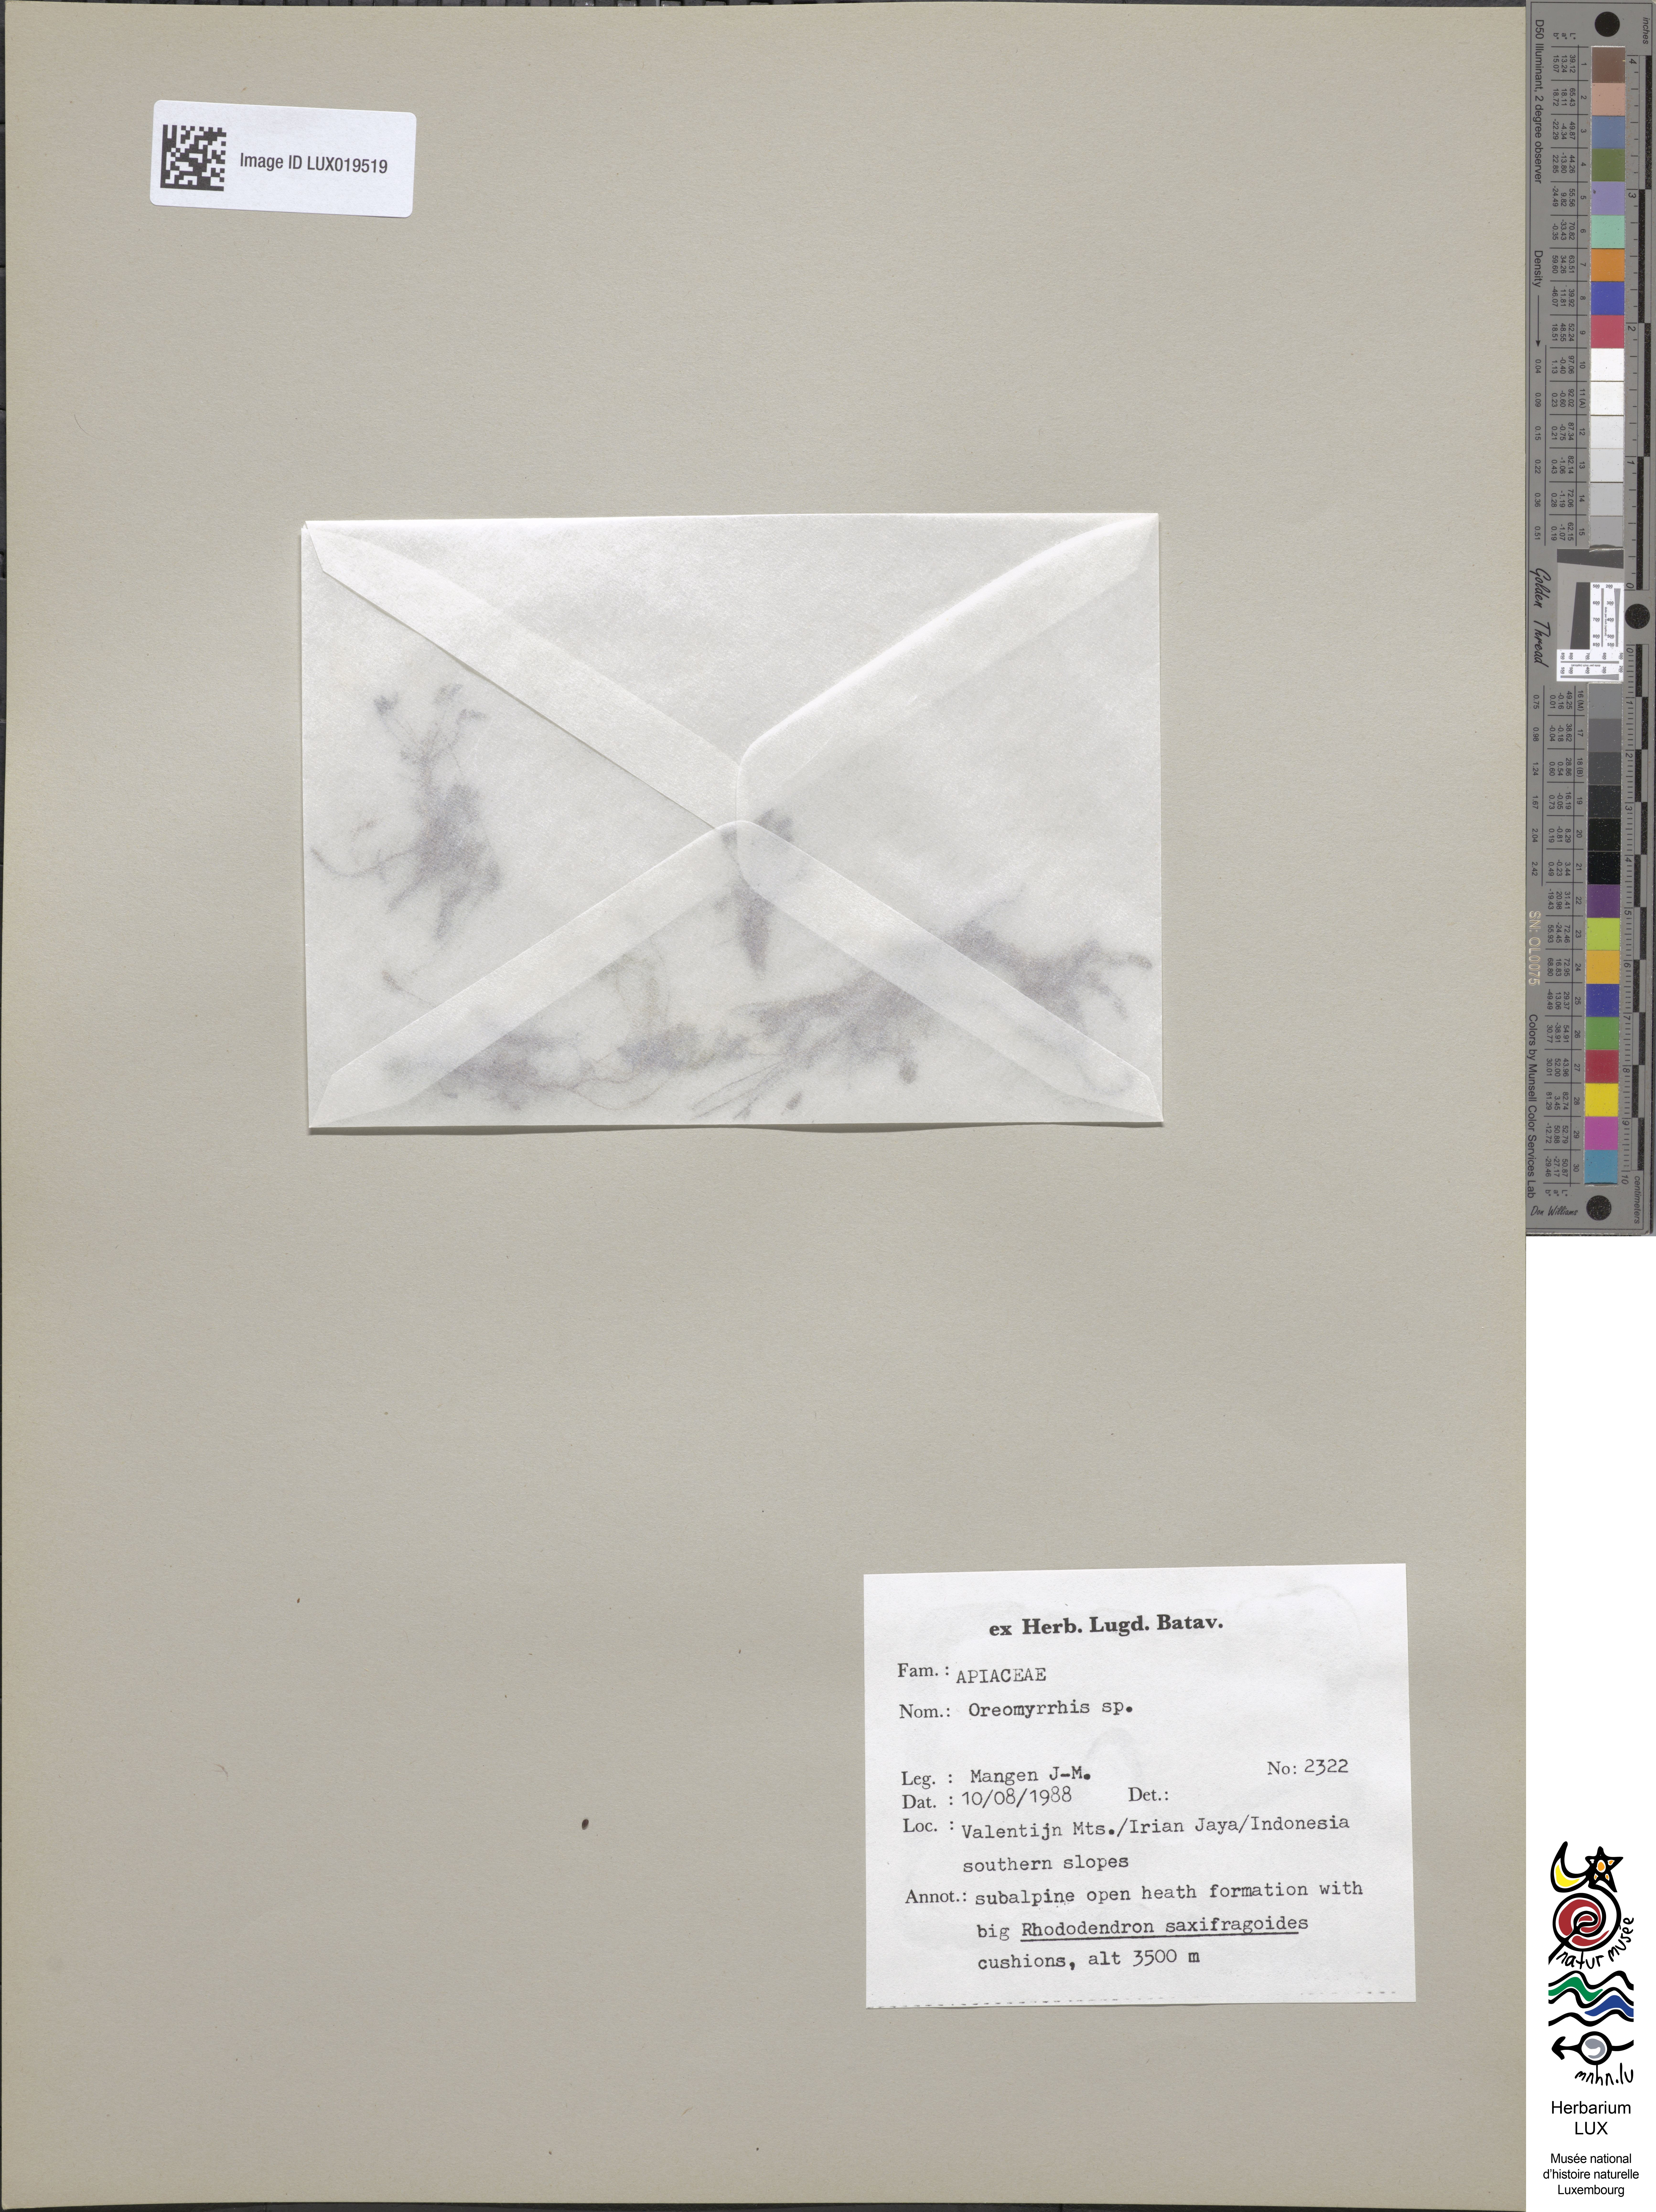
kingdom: Plantae
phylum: Tracheophyta
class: Magnoliopsida
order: Apiales
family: Apiaceae
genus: Chaerophyllum
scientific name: Chaerophyllum
